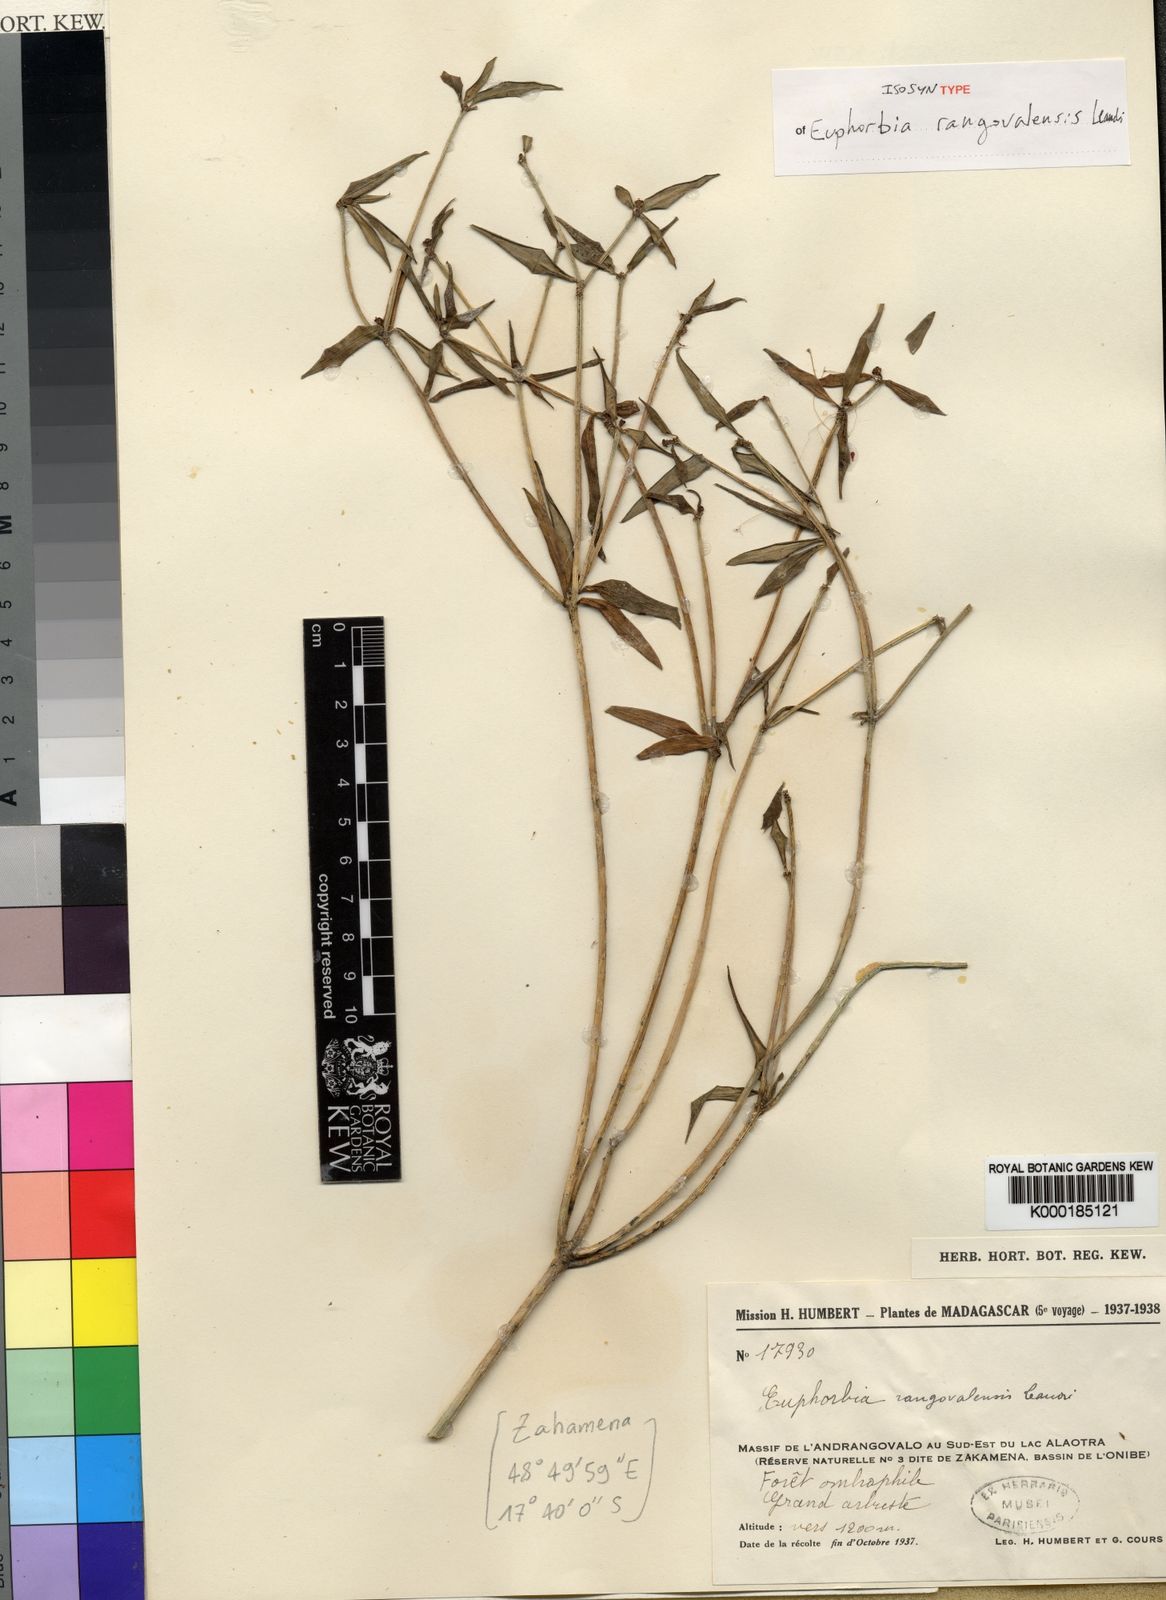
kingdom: Plantae
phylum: Tracheophyta
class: Magnoliopsida
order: Malpighiales
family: Euphorbiaceae
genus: Euphorbia
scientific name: Euphorbia rangovalensis
